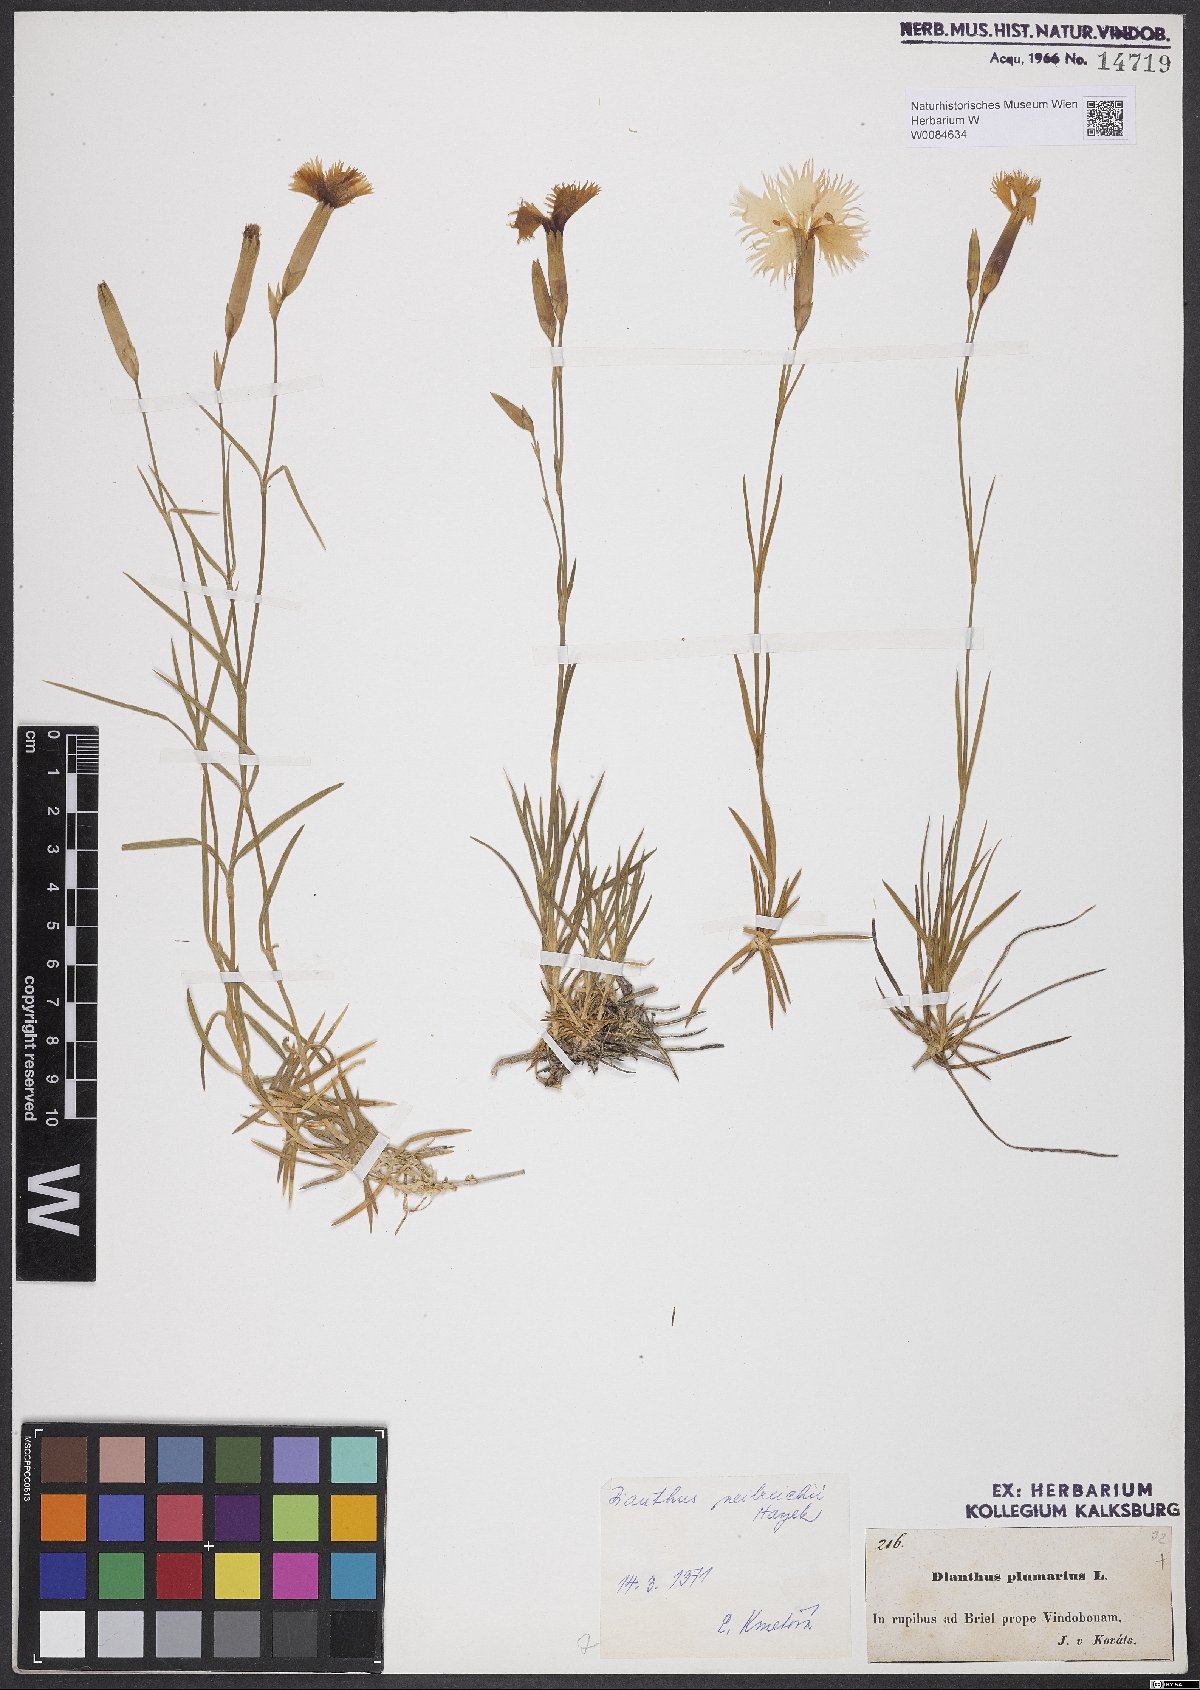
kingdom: Plantae
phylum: Tracheophyta
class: Magnoliopsida
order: Caryophyllales
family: Caryophyllaceae
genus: Dianthus
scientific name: Dianthus plumarius
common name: Pink
